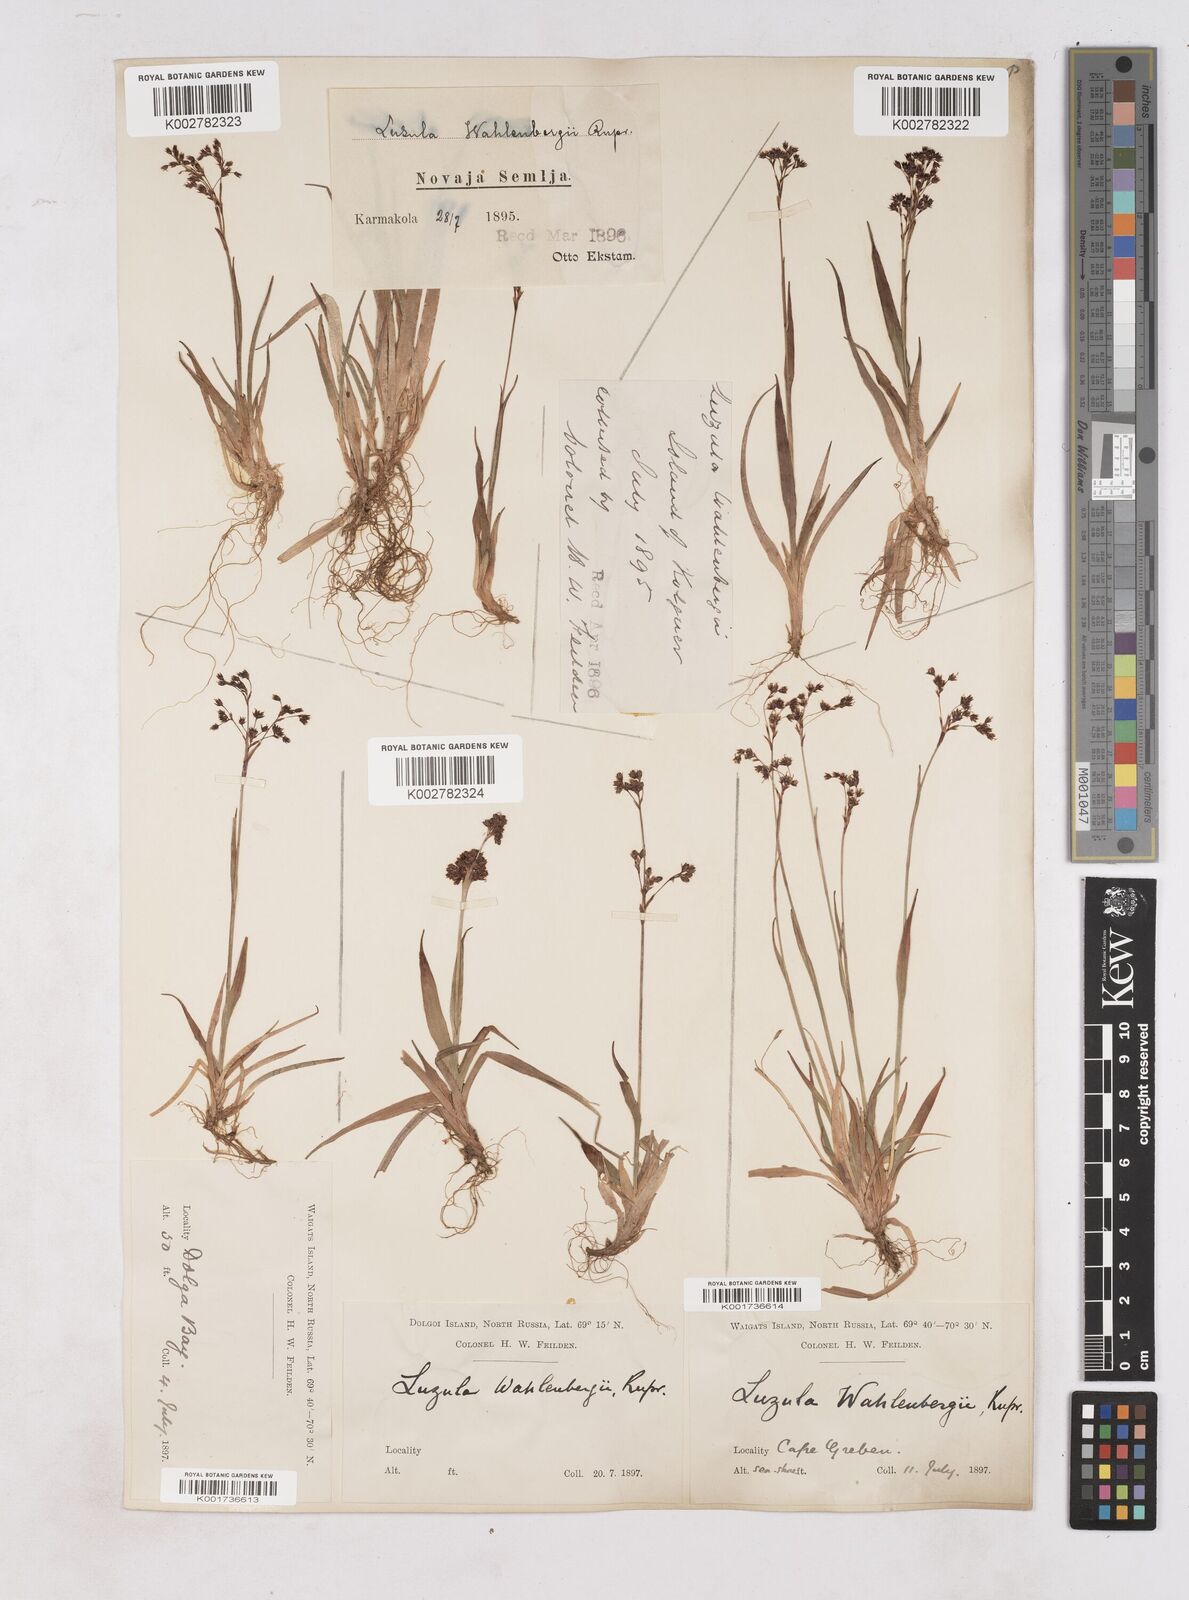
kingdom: Plantae
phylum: Tracheophyta
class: Liliopsida
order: Poales
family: Juncaceae
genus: Luzula
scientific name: Luzula alpinopilosa
